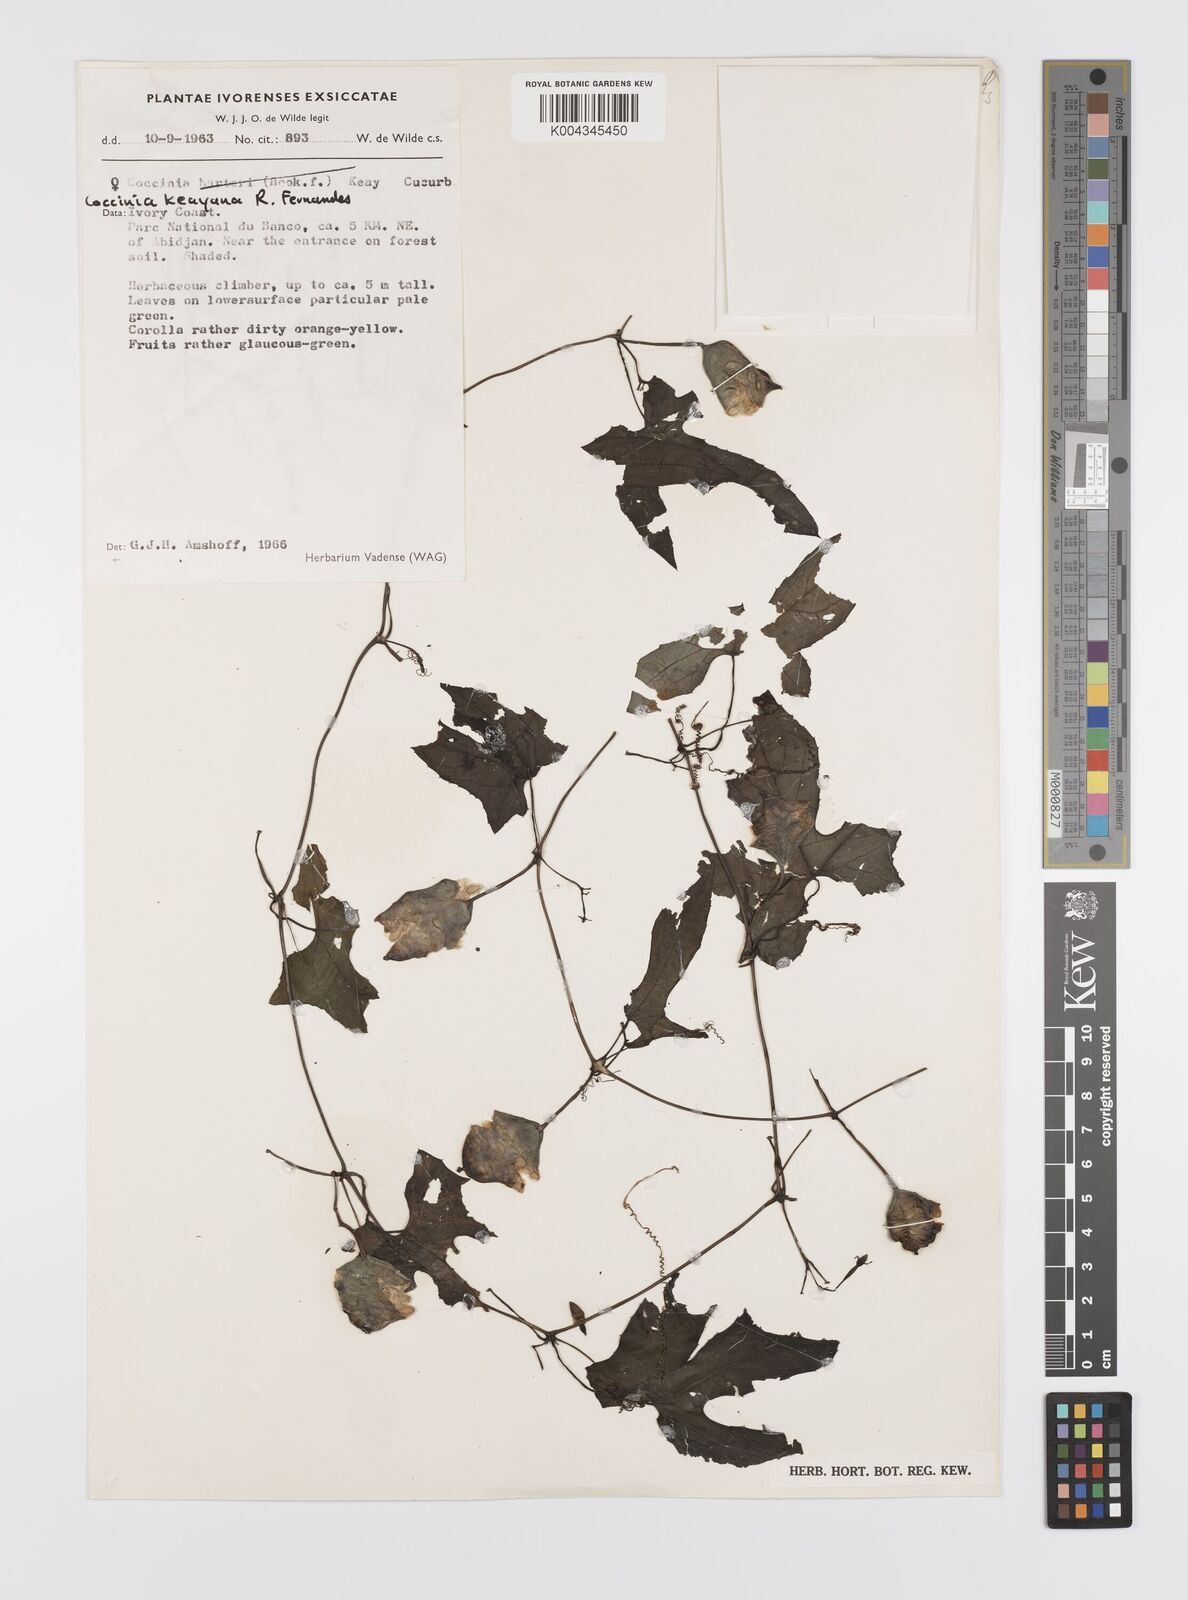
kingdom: Plantae
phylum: Tracheophyta
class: Magnoliopsida
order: Cucurbitales
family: Cucurbitaceae
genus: Coccinia
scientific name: Coccinia keayana
